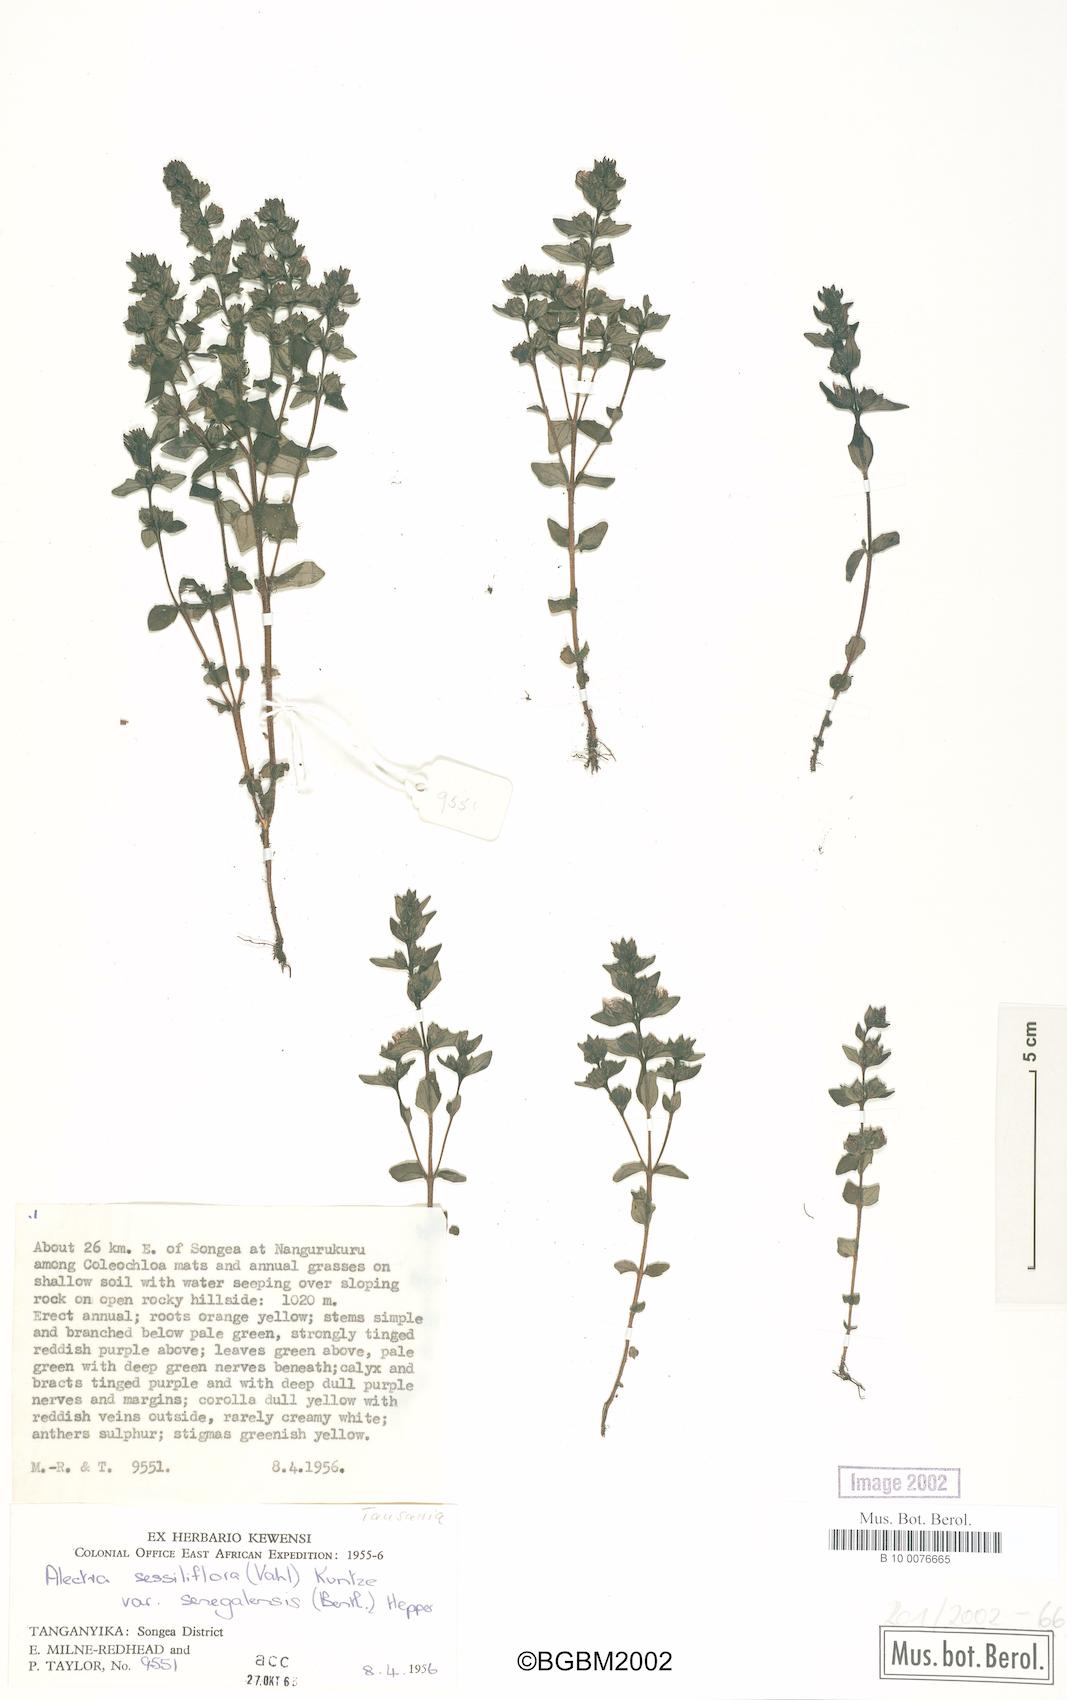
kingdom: Plantae
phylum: Tracheophyta
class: Magnoliopsida
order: Lamiales
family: Orobanchaceae
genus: Alectra
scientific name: Alectra sessiliflora
